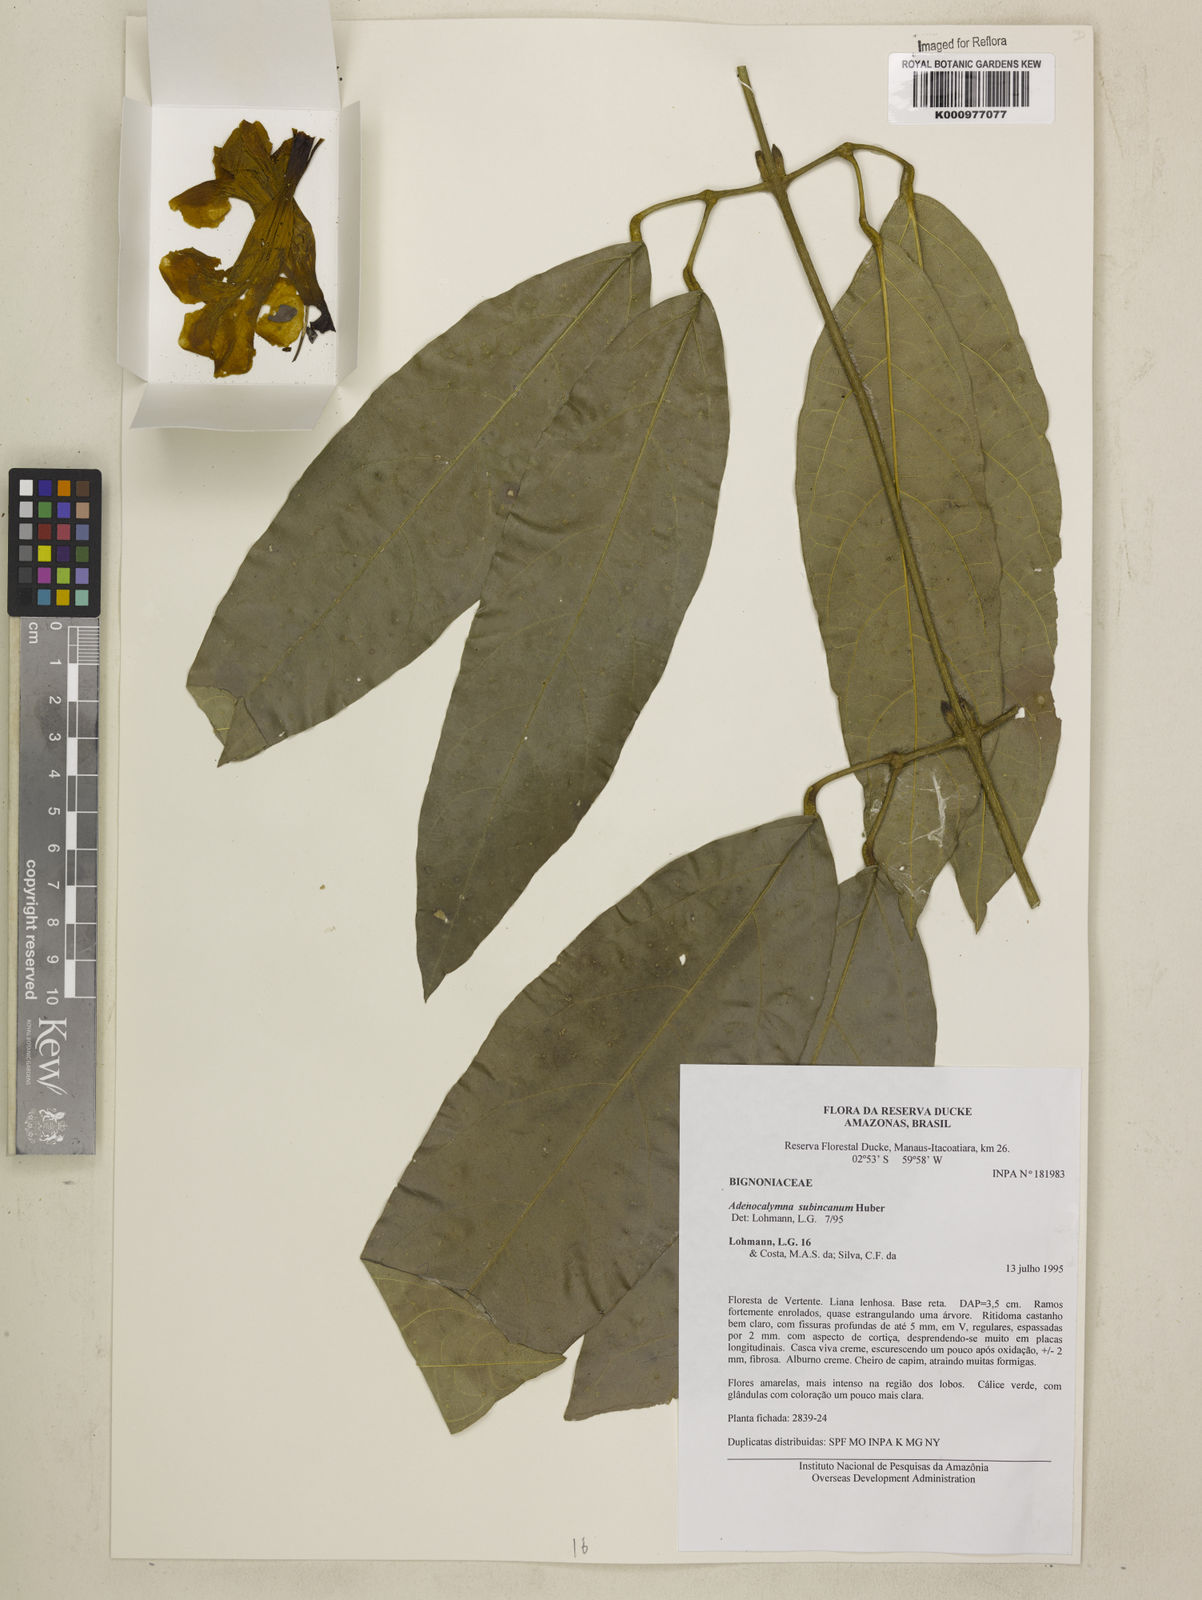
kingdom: Plantae
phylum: Tracheophyta
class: Magnoliopsida
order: Lamiales
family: Bignoniaceae
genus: Adenocalymma
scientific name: Adenocalymma subincanum
